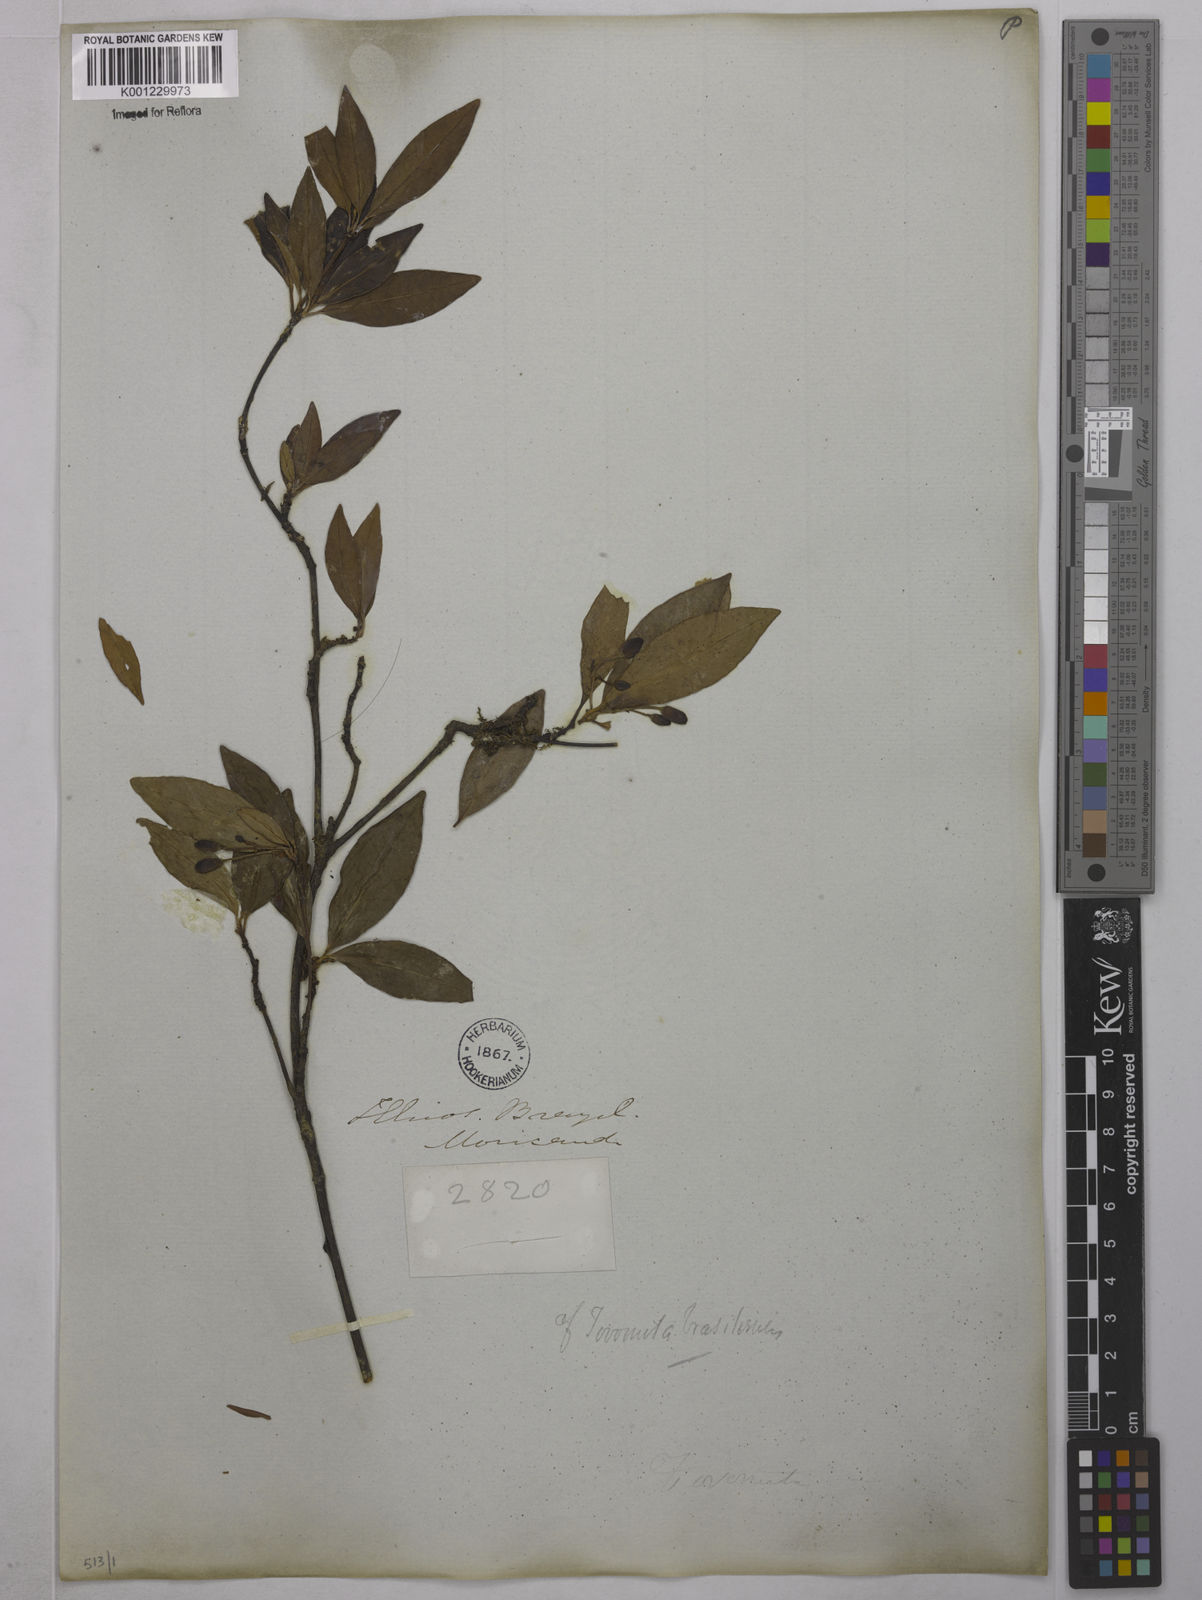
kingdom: Plantae
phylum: Tracheophyta
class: Magnoliopsida
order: Malpighiales
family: Clusiaceae
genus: Tovomita
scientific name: Tovomita
